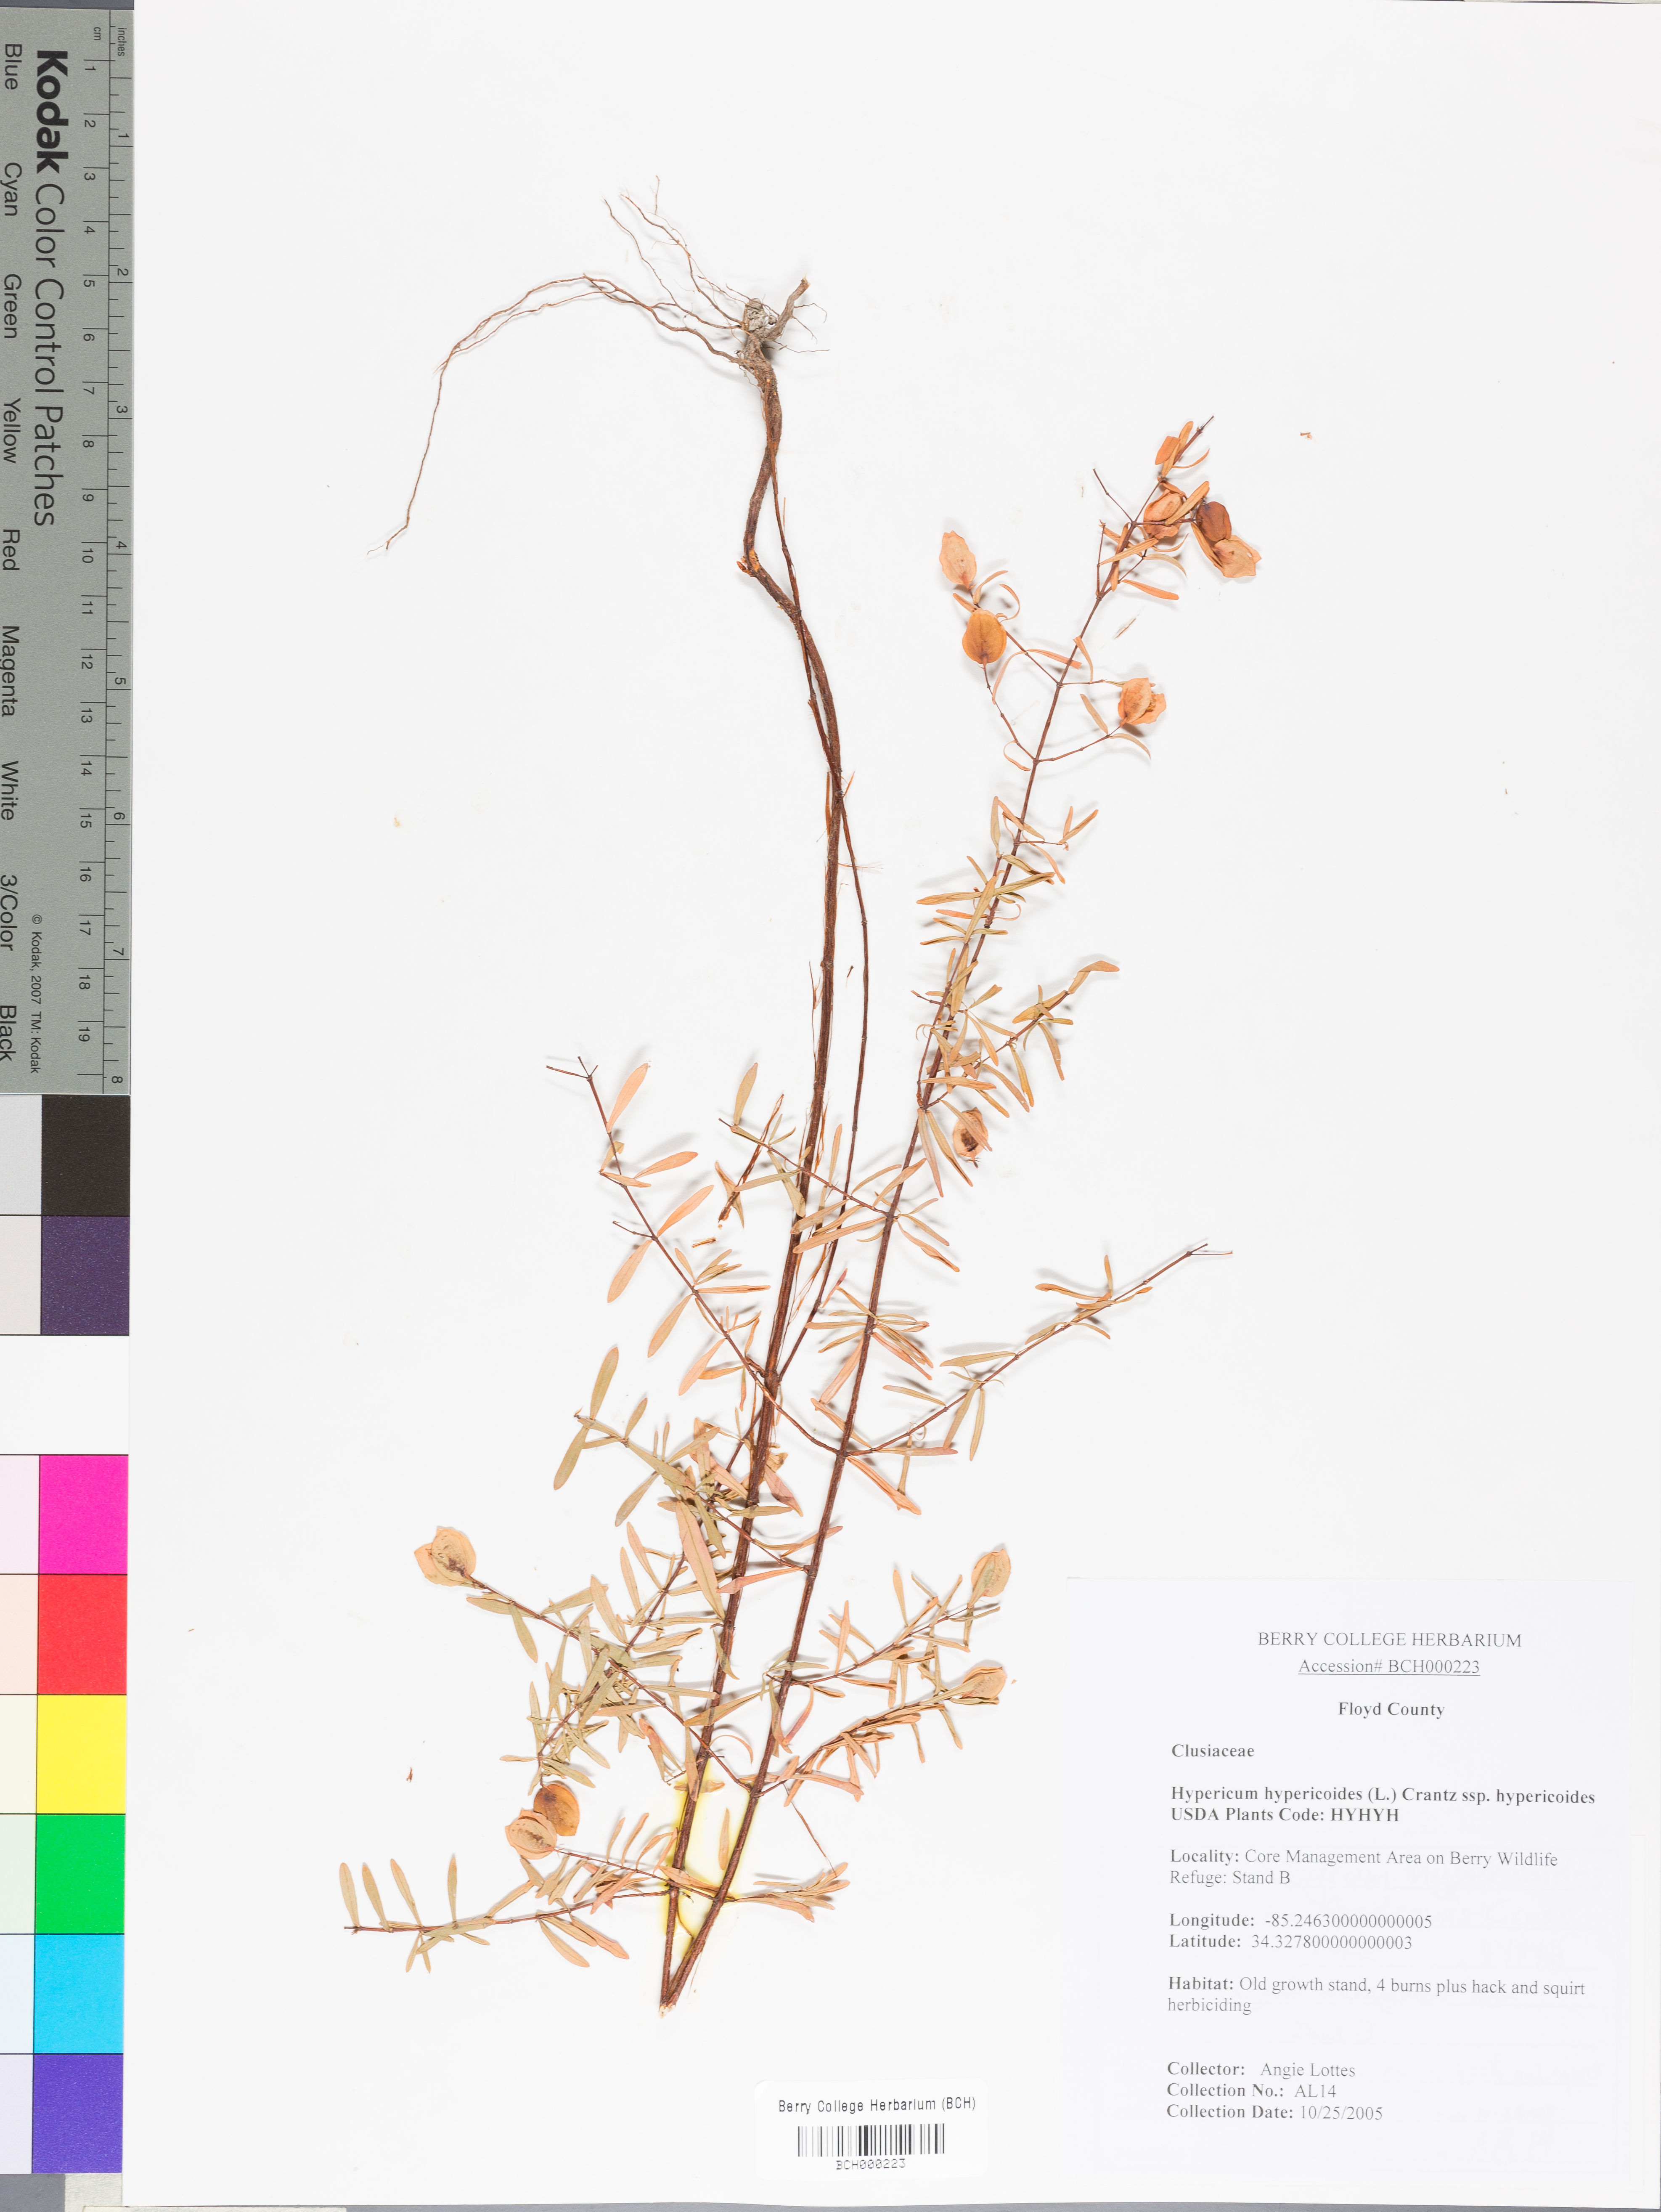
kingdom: Plantae
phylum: Tracheophyta
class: Magnoliopsida
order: Malpighiales
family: Hypericaceae
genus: Hypericum
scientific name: Hypericum hypericoides
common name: St. andrew's cross
